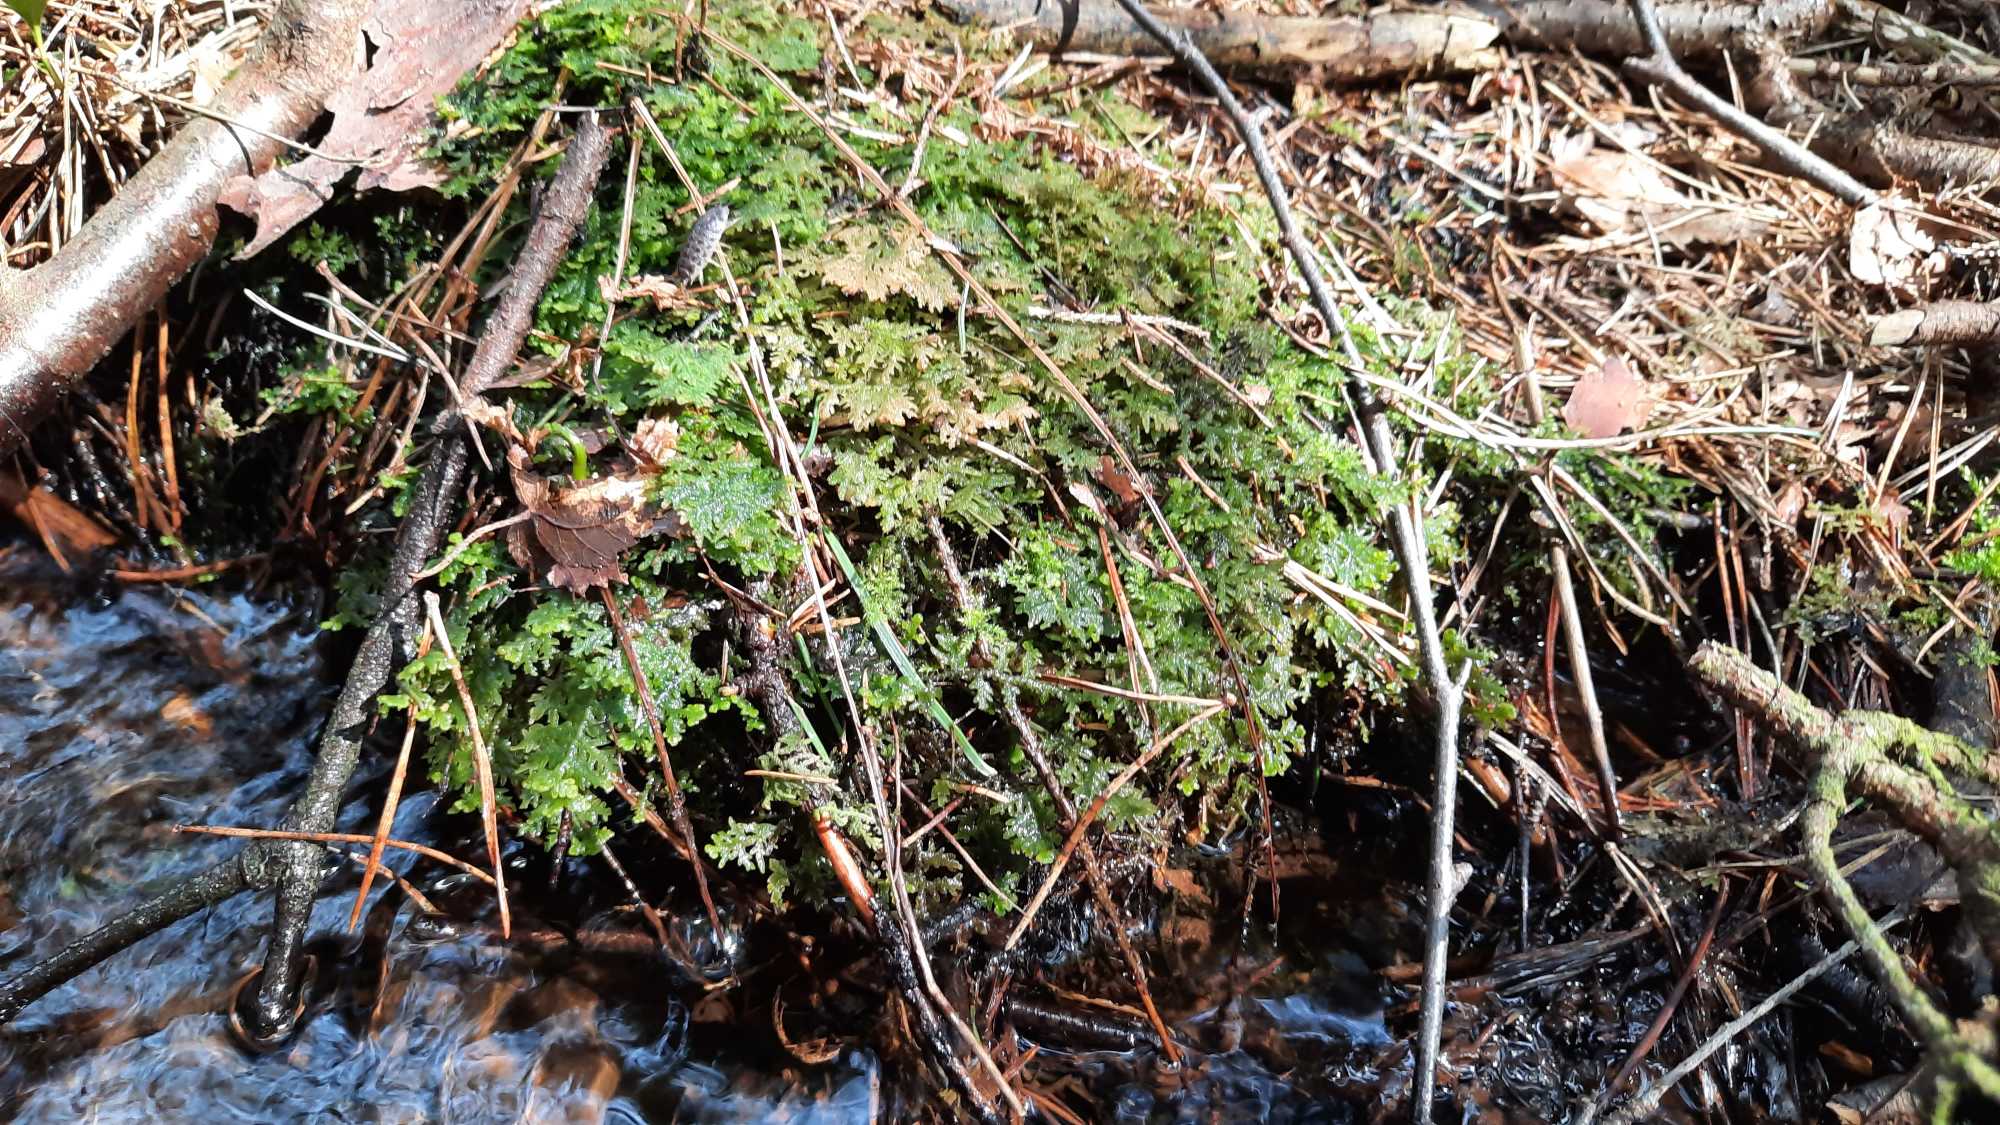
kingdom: Plantae
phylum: Marchantiophyta
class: Jungermanniopsida
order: Jungermanniales
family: Trichocoleaceae
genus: Trichocolea
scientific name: Trichocolea tomentella
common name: Bleg dunmos
